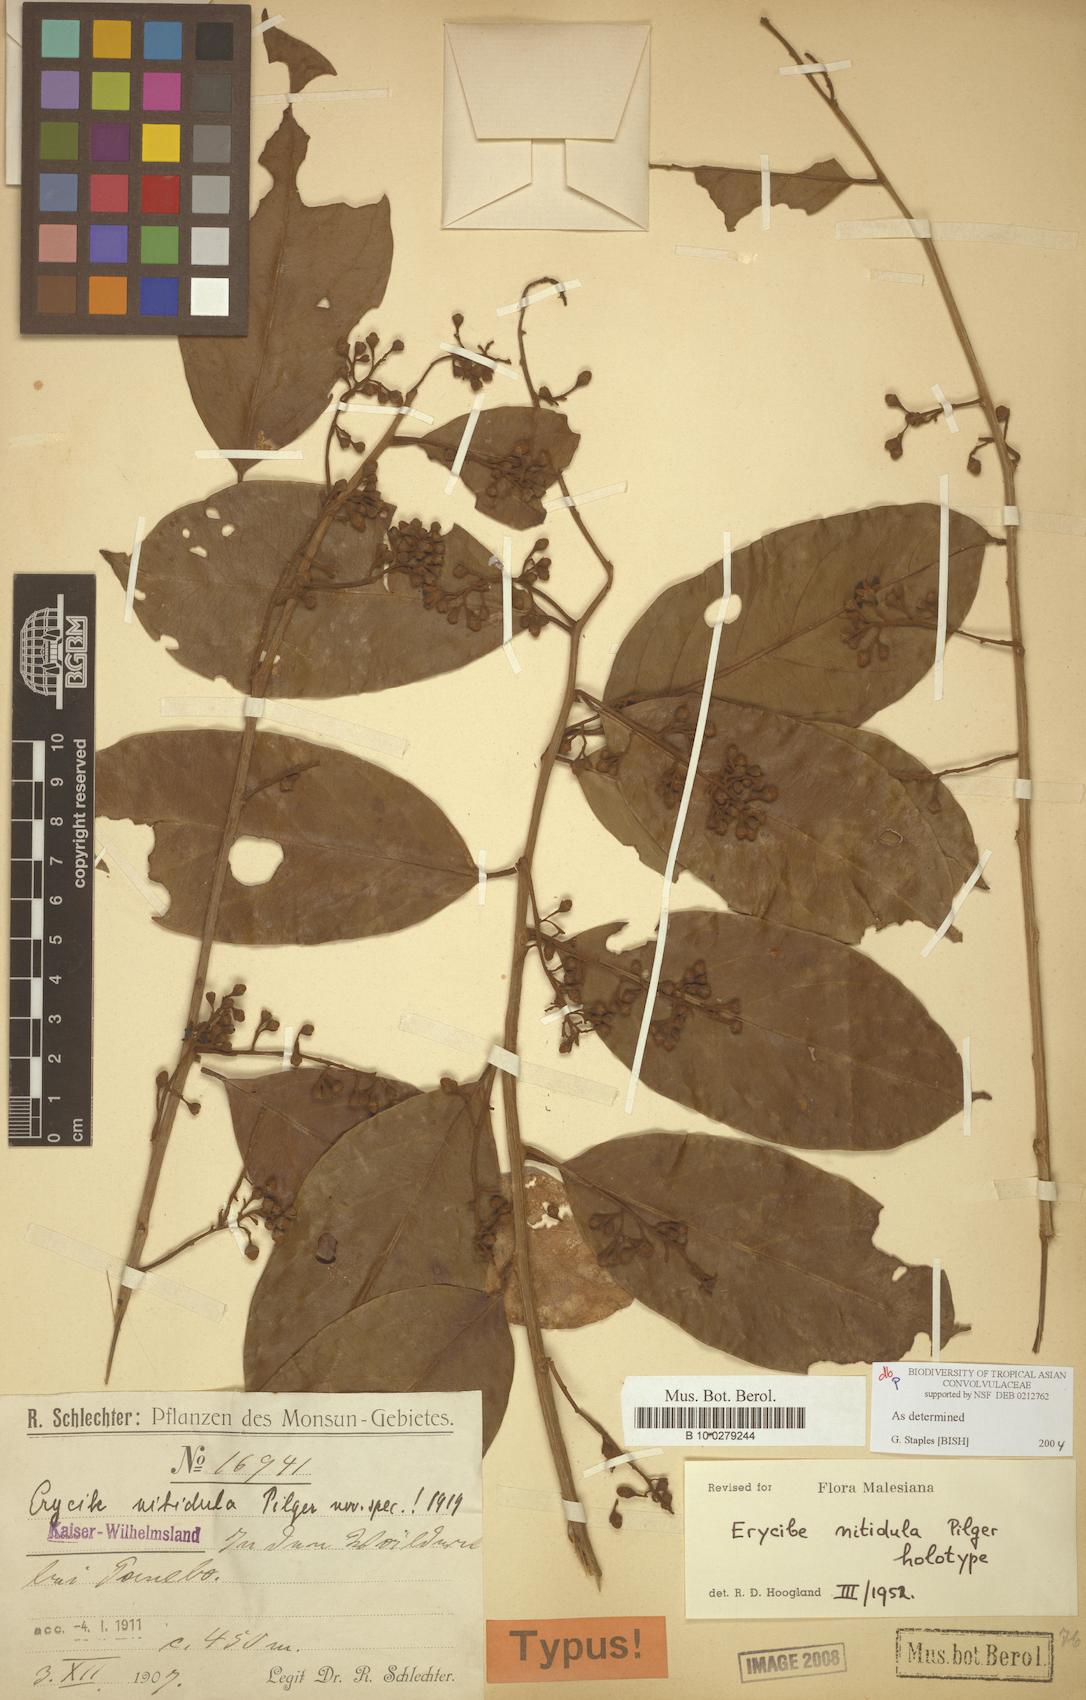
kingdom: Plantae
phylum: Tracheophyta
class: Magnoliopsida
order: Solanales
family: Convolvulaceae
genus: Erycibe
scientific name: Erycibe nitidula
